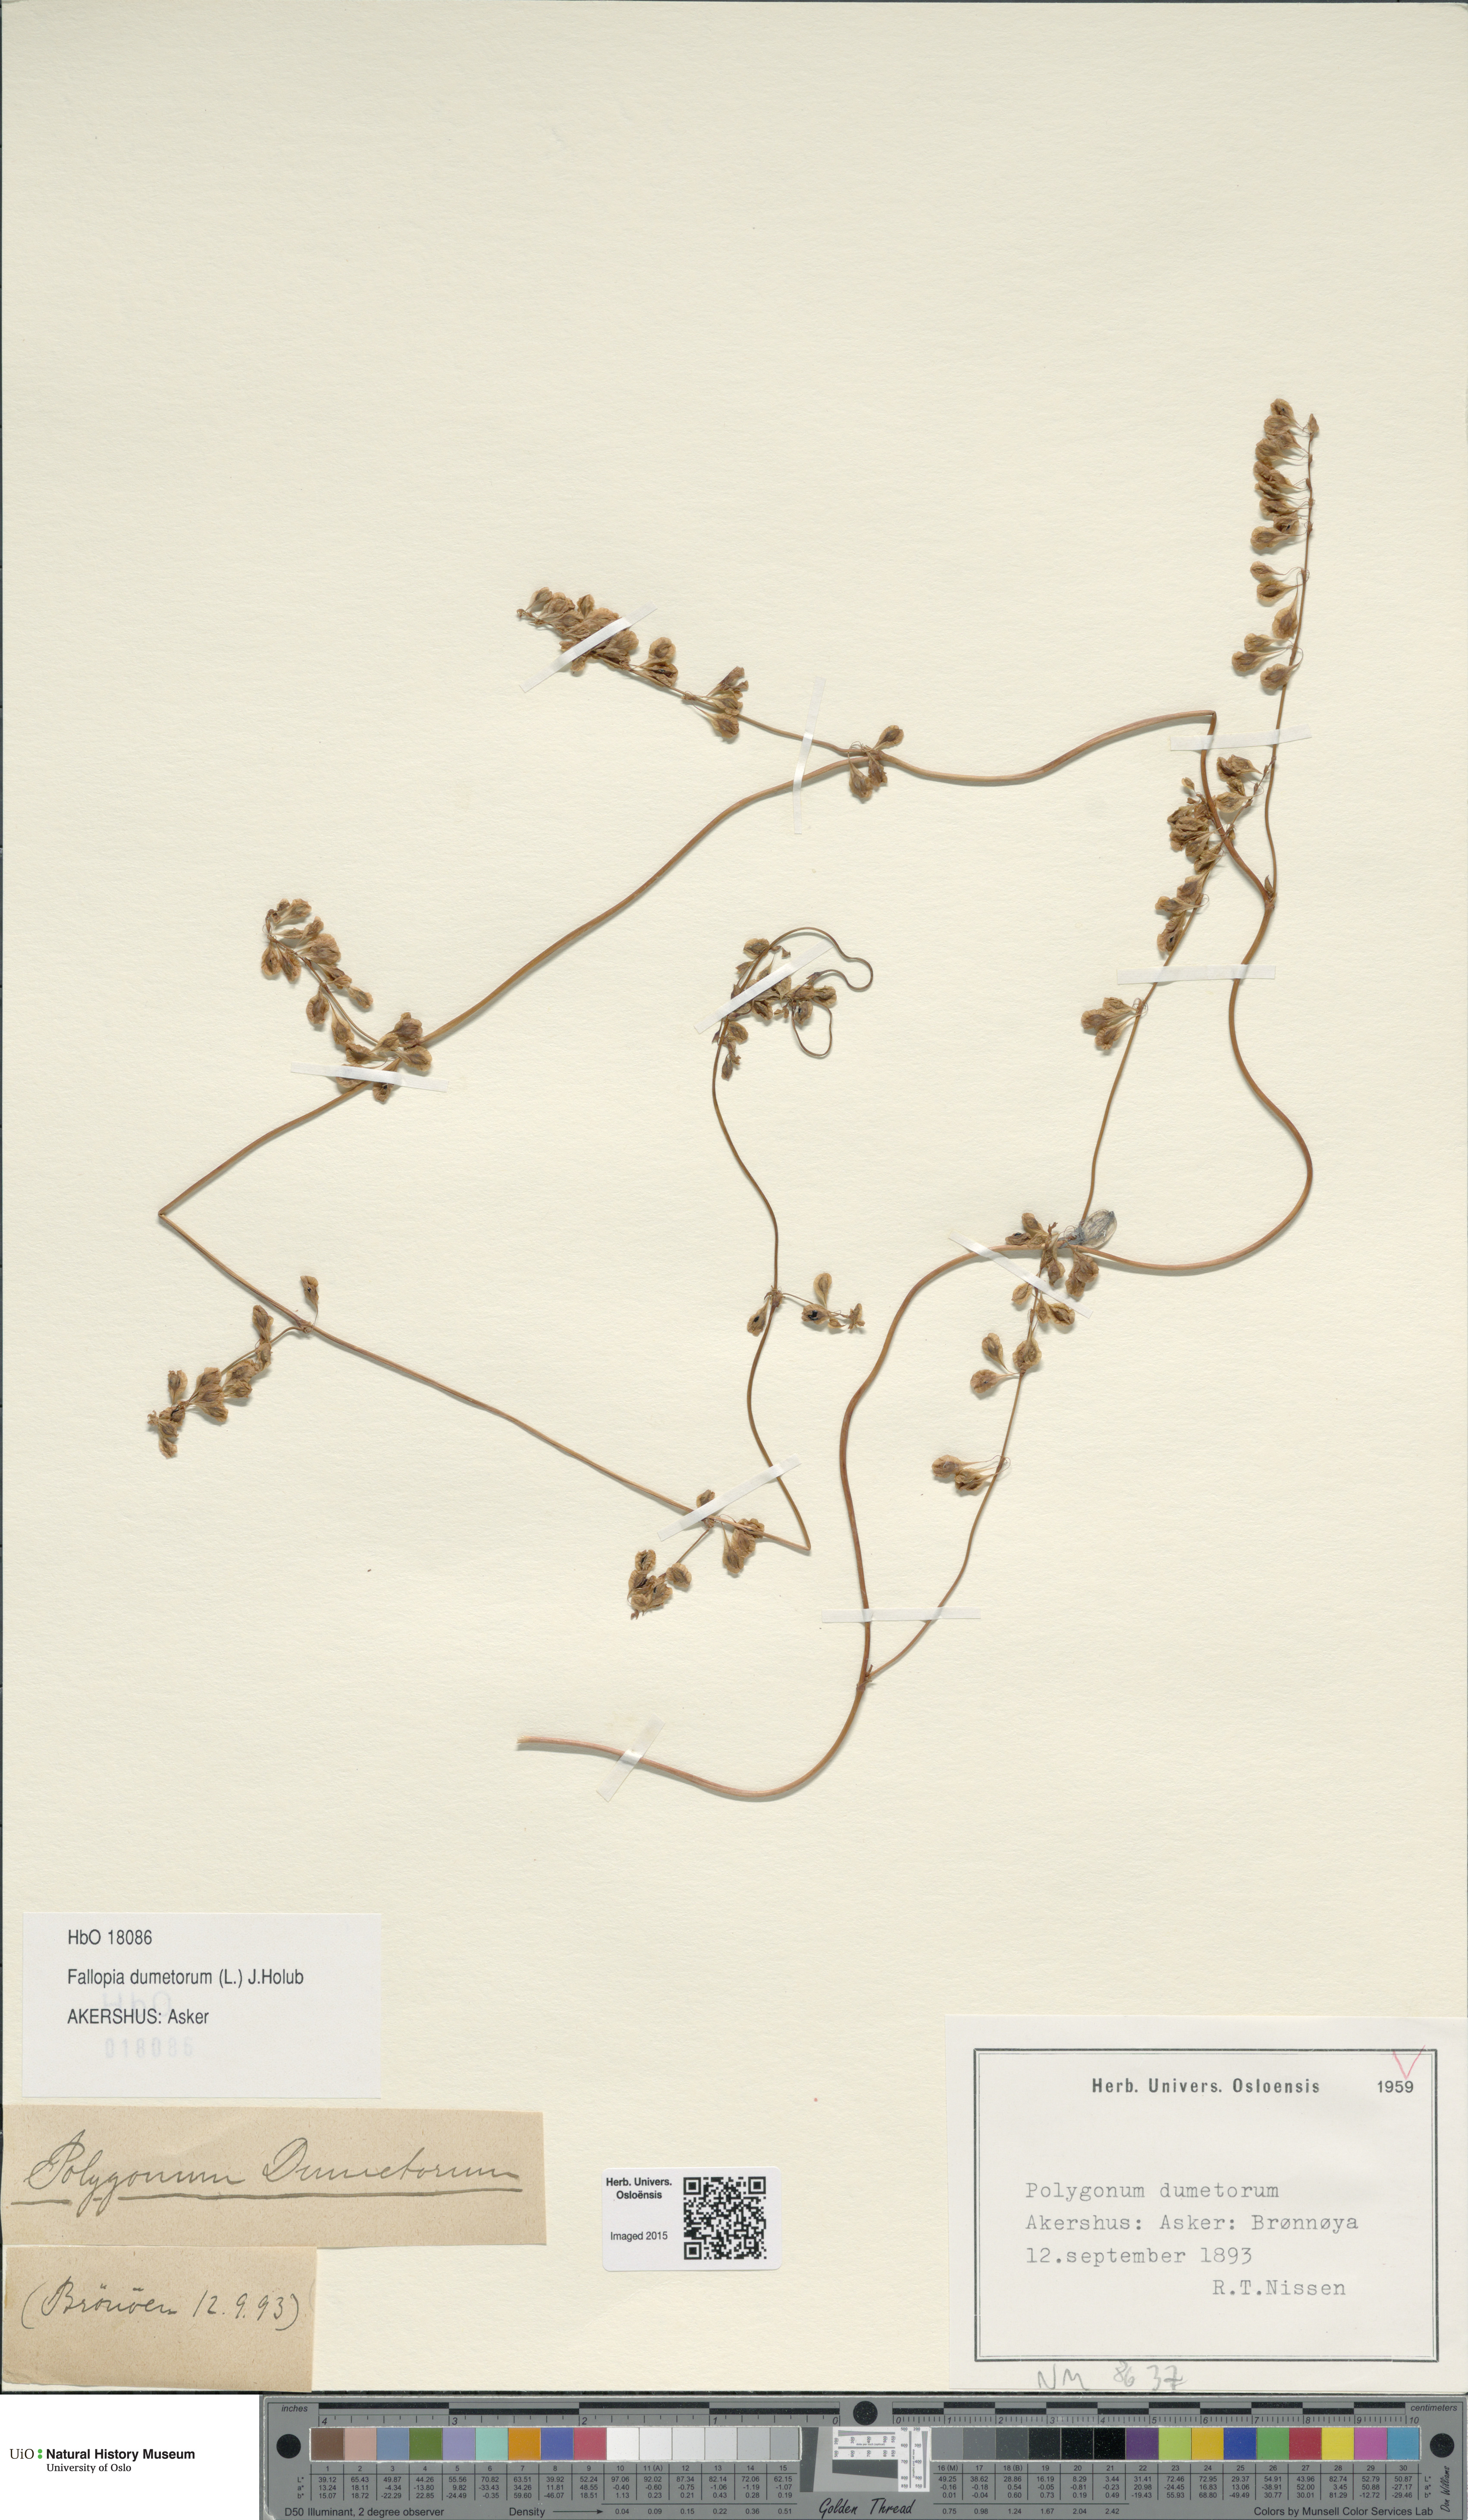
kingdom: Plantae
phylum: Tracheophyta
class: Magnoliopsida
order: Caryophyllales
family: Polygonaceae
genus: Fallopia
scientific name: Fallopia dumetorum
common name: Copse-bindweed
